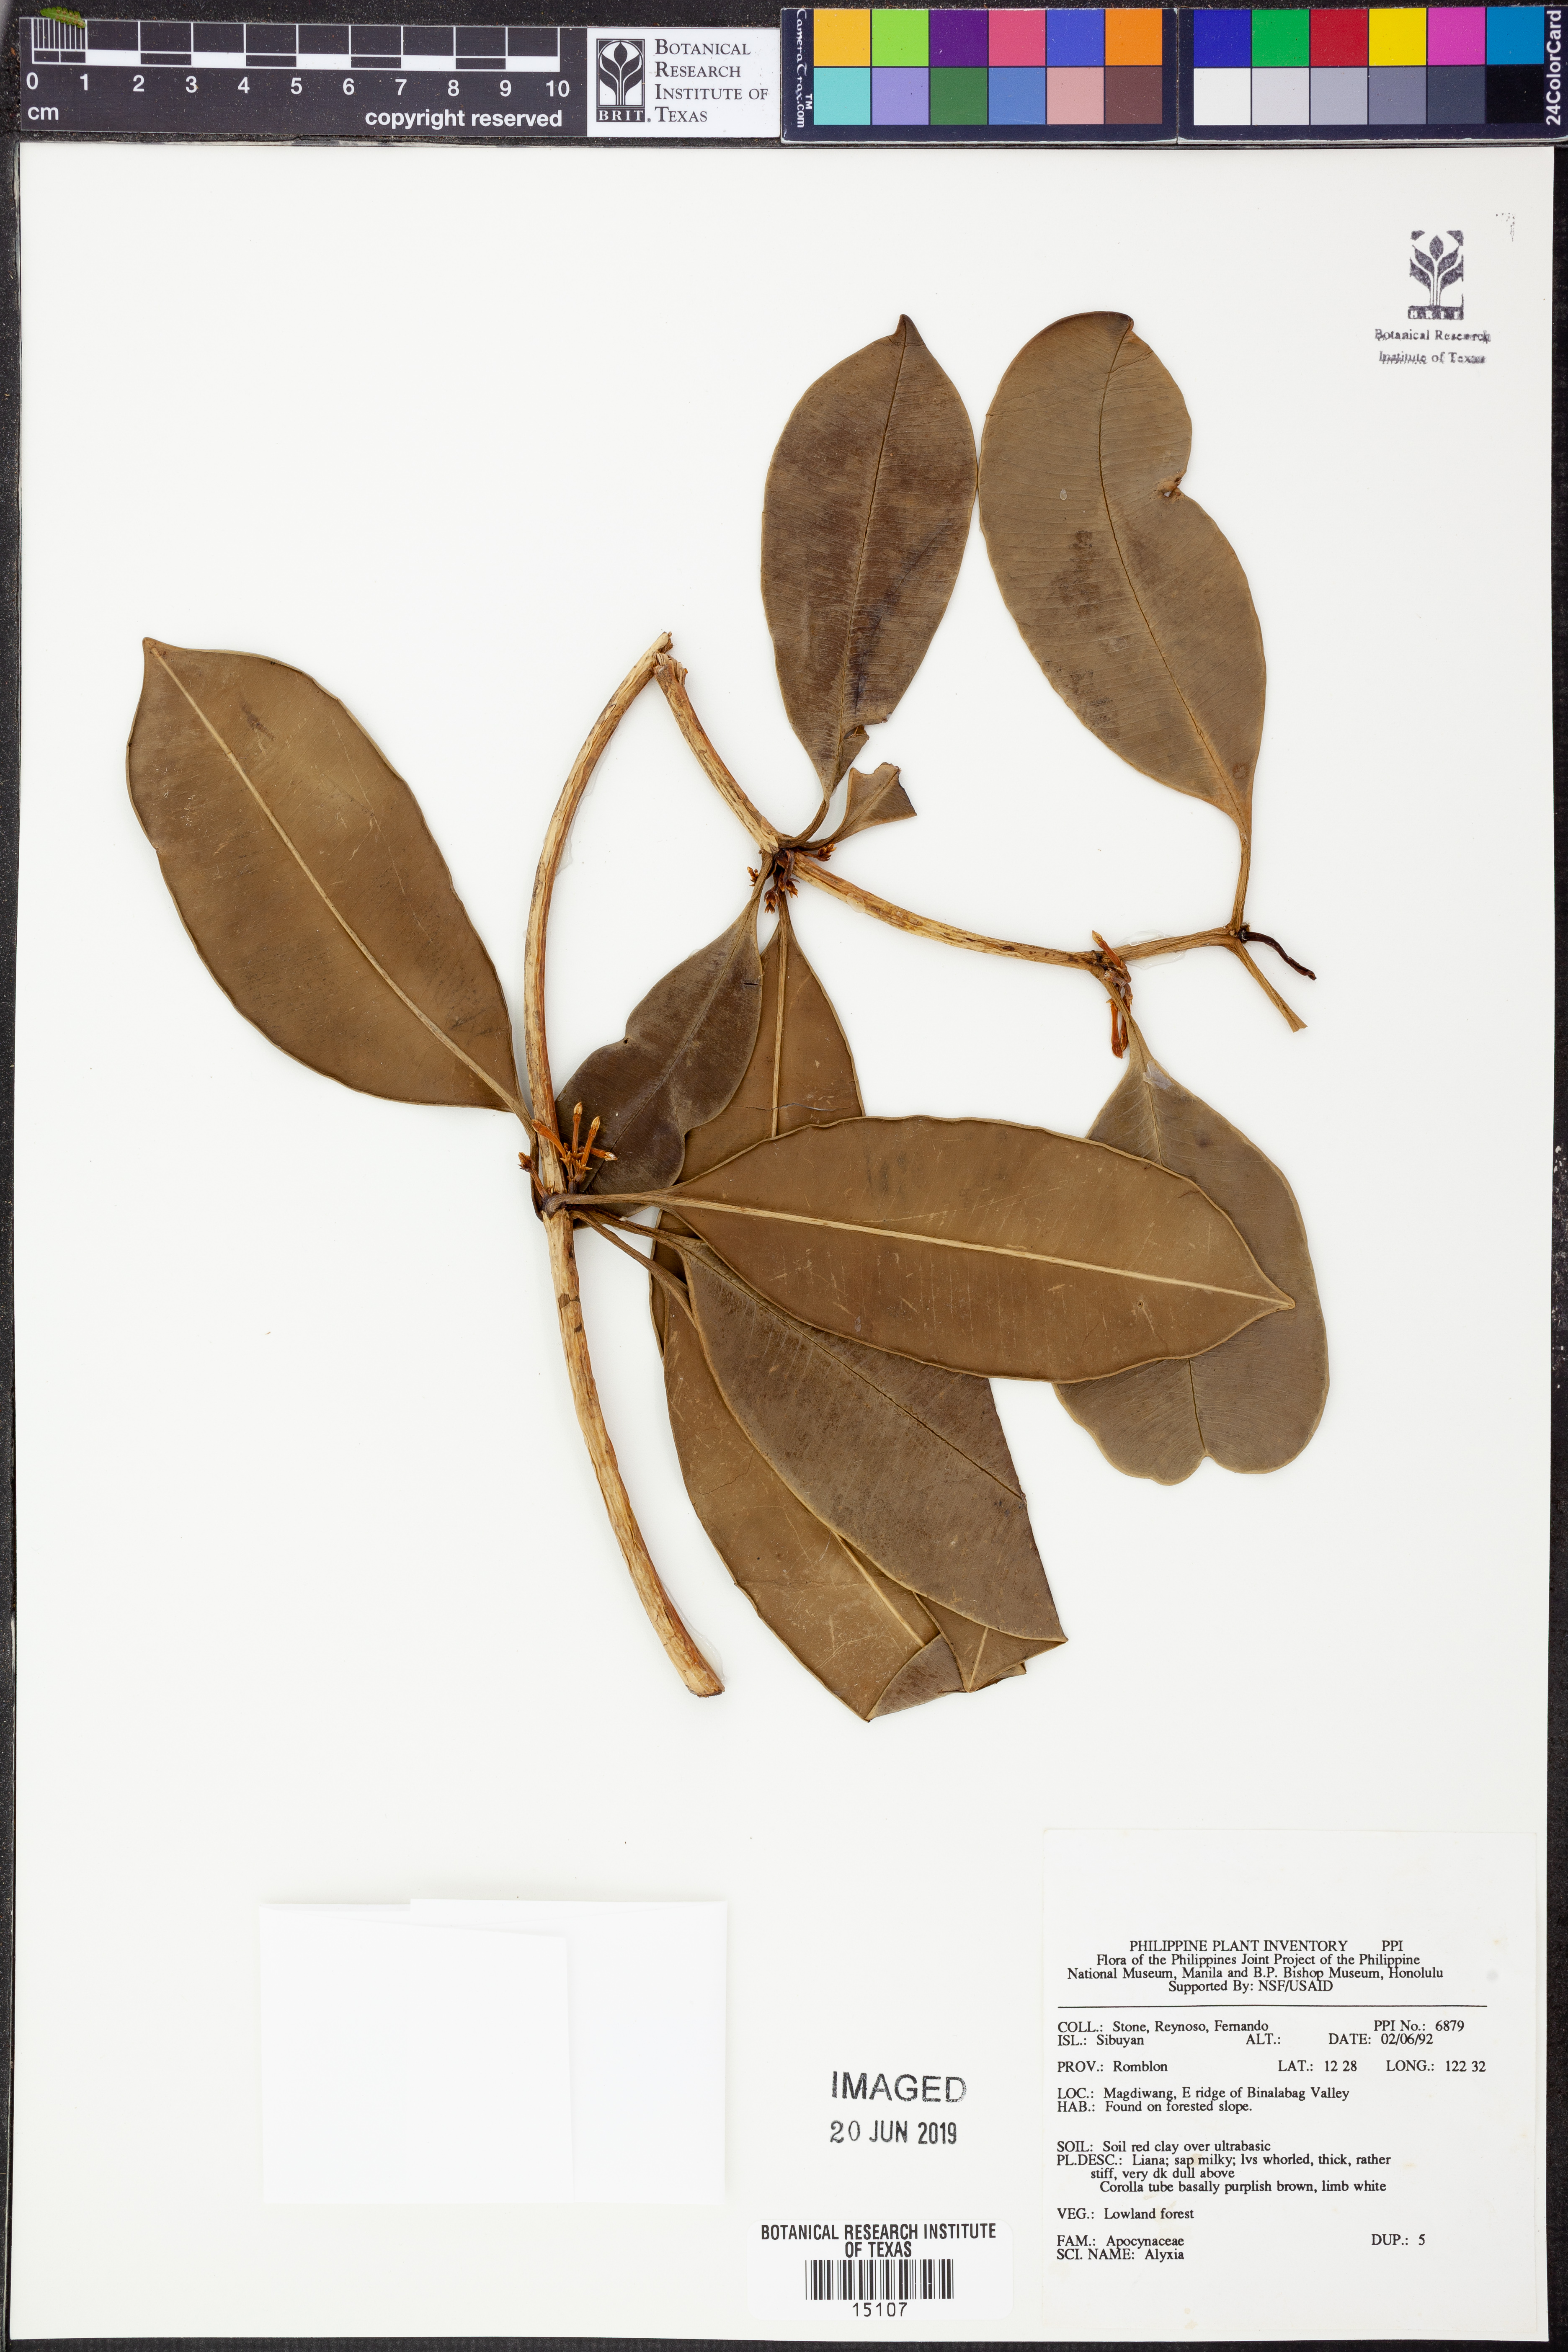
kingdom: Plantae
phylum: Tracheophyta
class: Magnoliopsida
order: Gentianales
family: Apocynaceae
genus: Alyxia
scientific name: Alyxia
